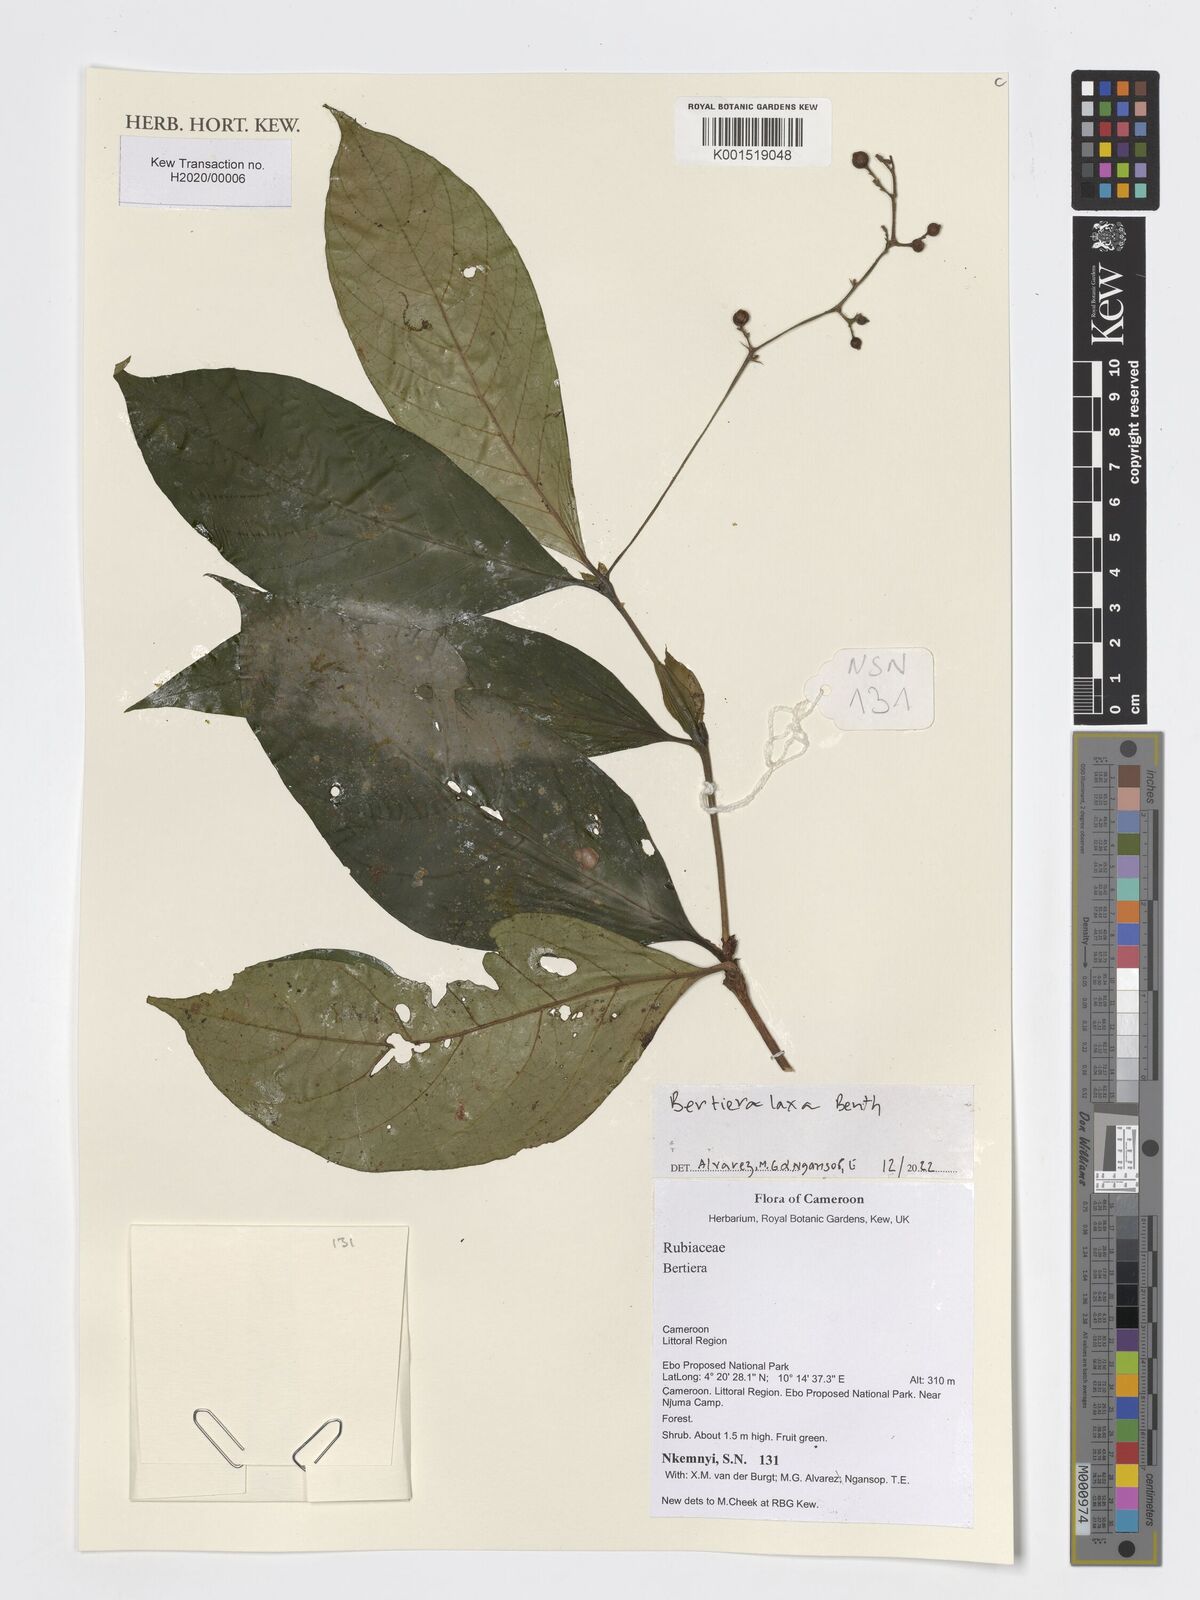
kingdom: Plantae
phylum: Tracheophyta
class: Magnoliopsida
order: Gentianales
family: Rubiaceae
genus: Bertiera
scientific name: Bertiera
